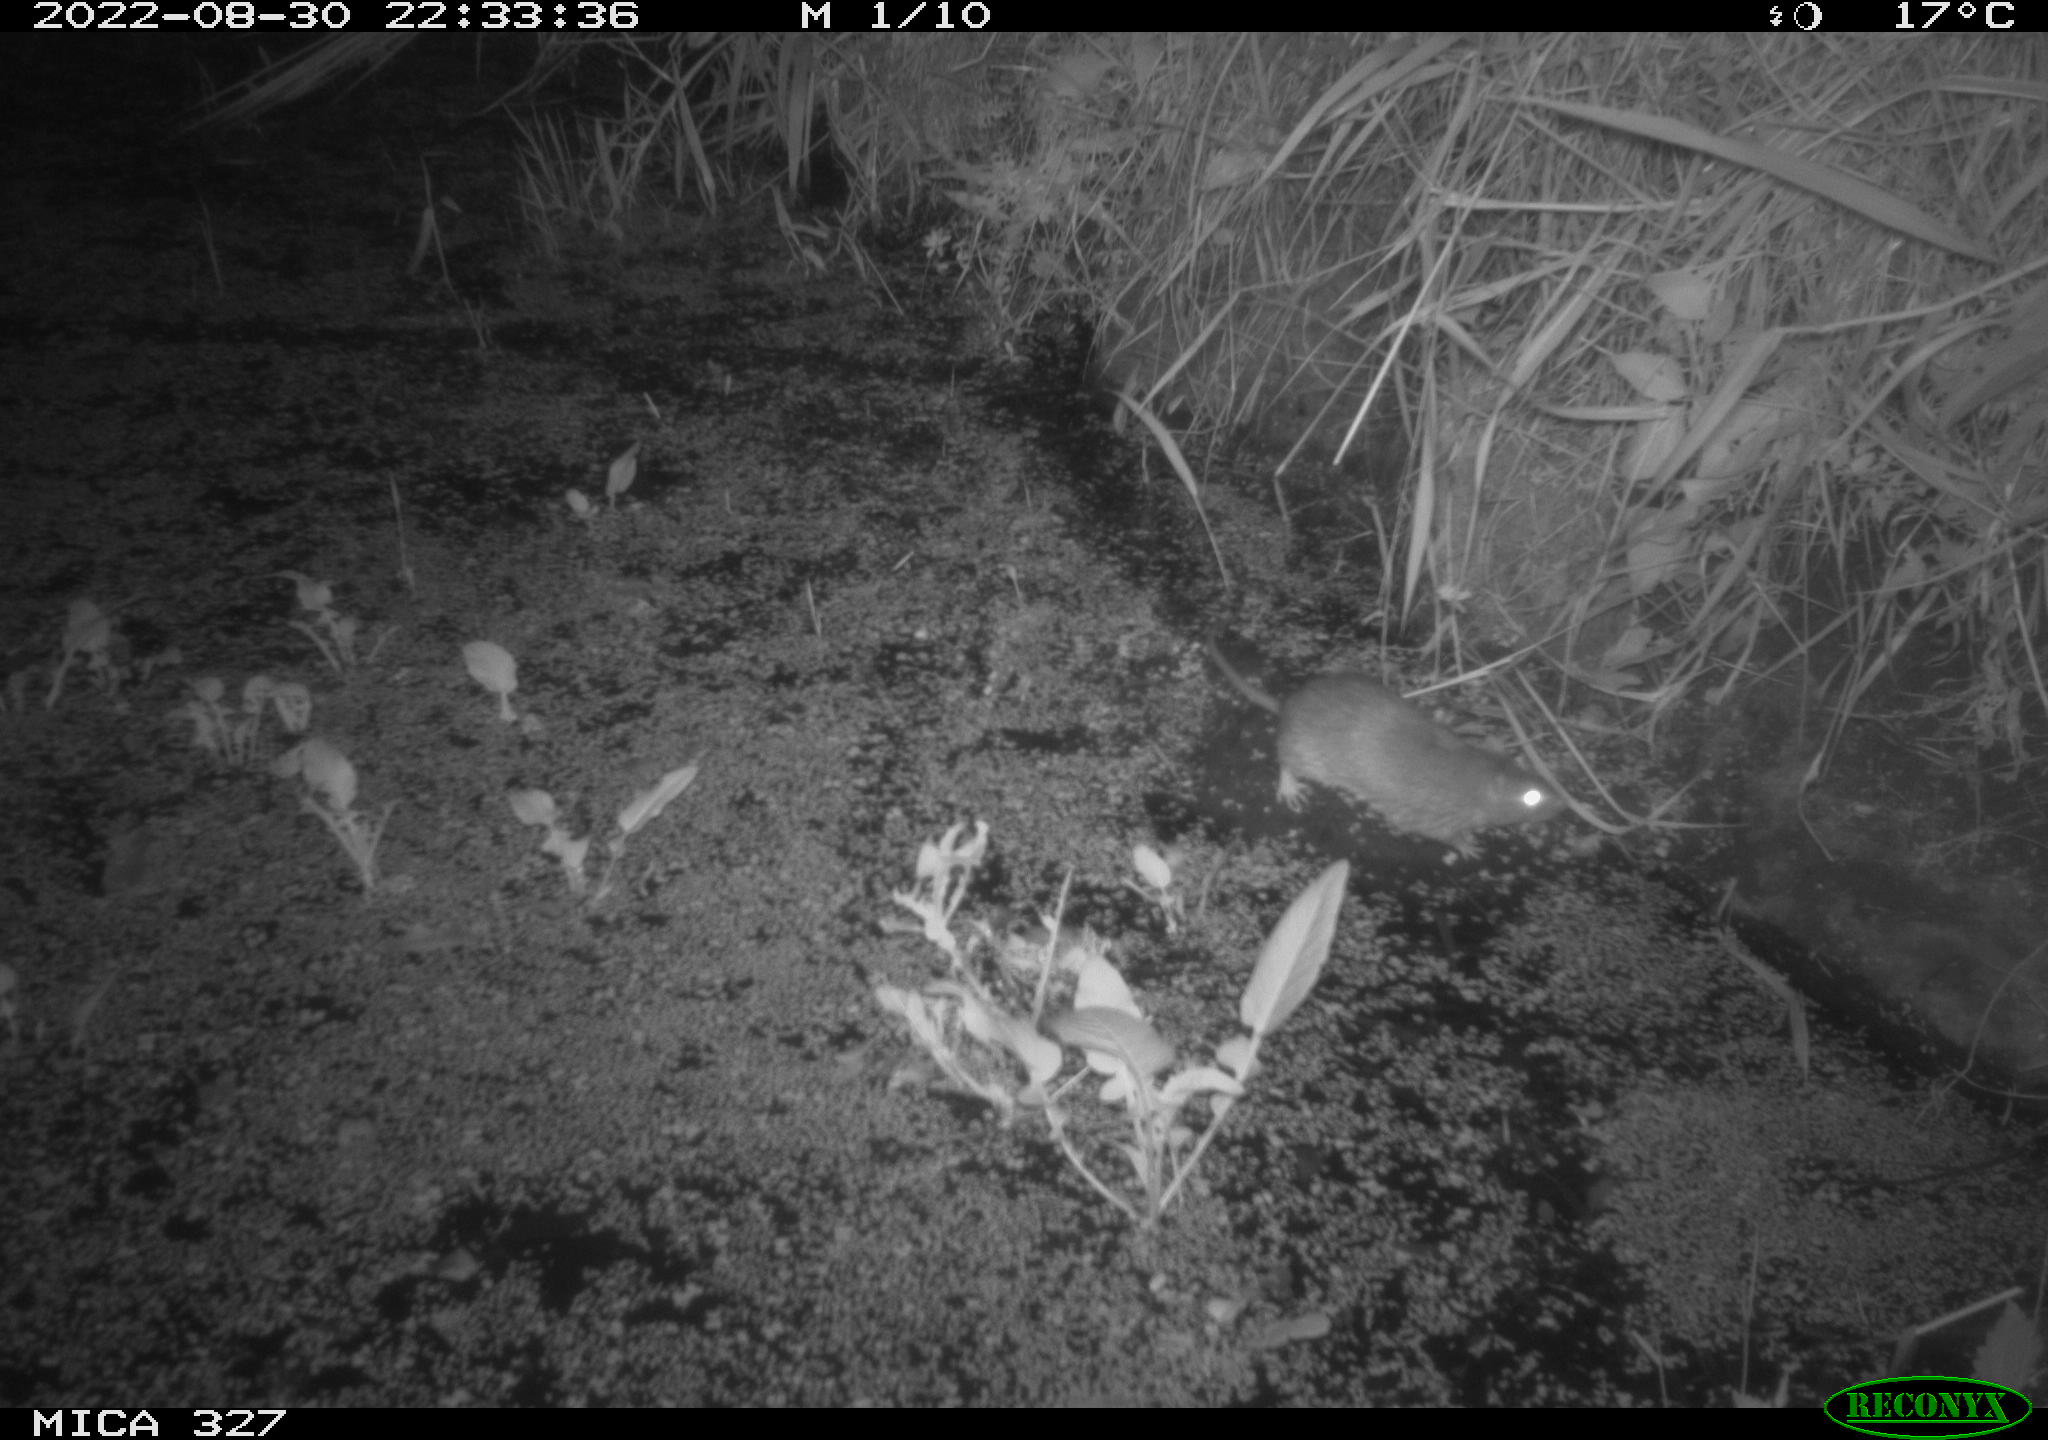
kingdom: Animalia
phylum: Chordata
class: Mammalia
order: Rodentia
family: Muridae
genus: Rattus
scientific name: Rattus norvegicus
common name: Brown rat
